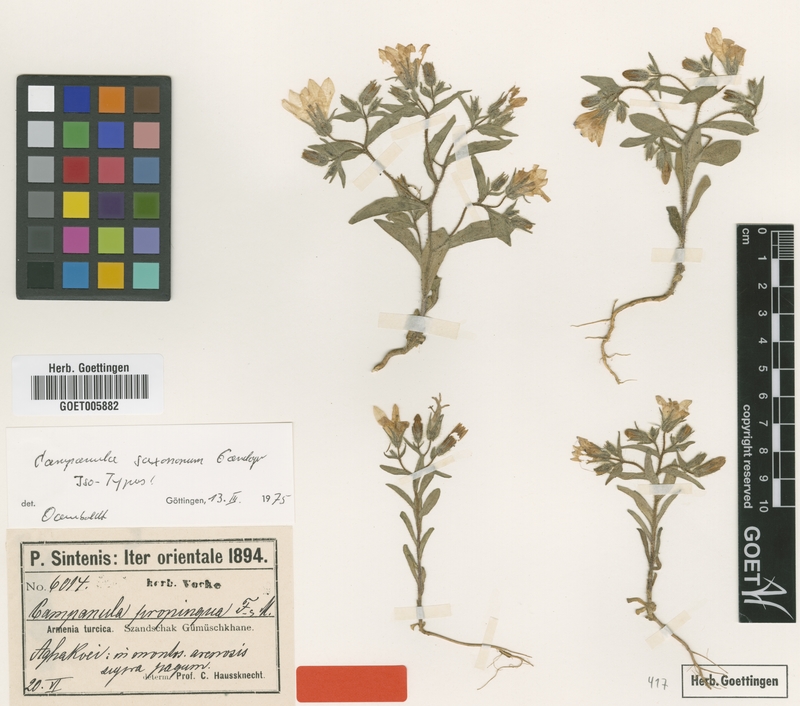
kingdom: Plantae
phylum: Tracheophyta
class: Magnoliopsida
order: Asterales
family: Campanulaceae
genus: Campanula
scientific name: Campanula saxonorum
